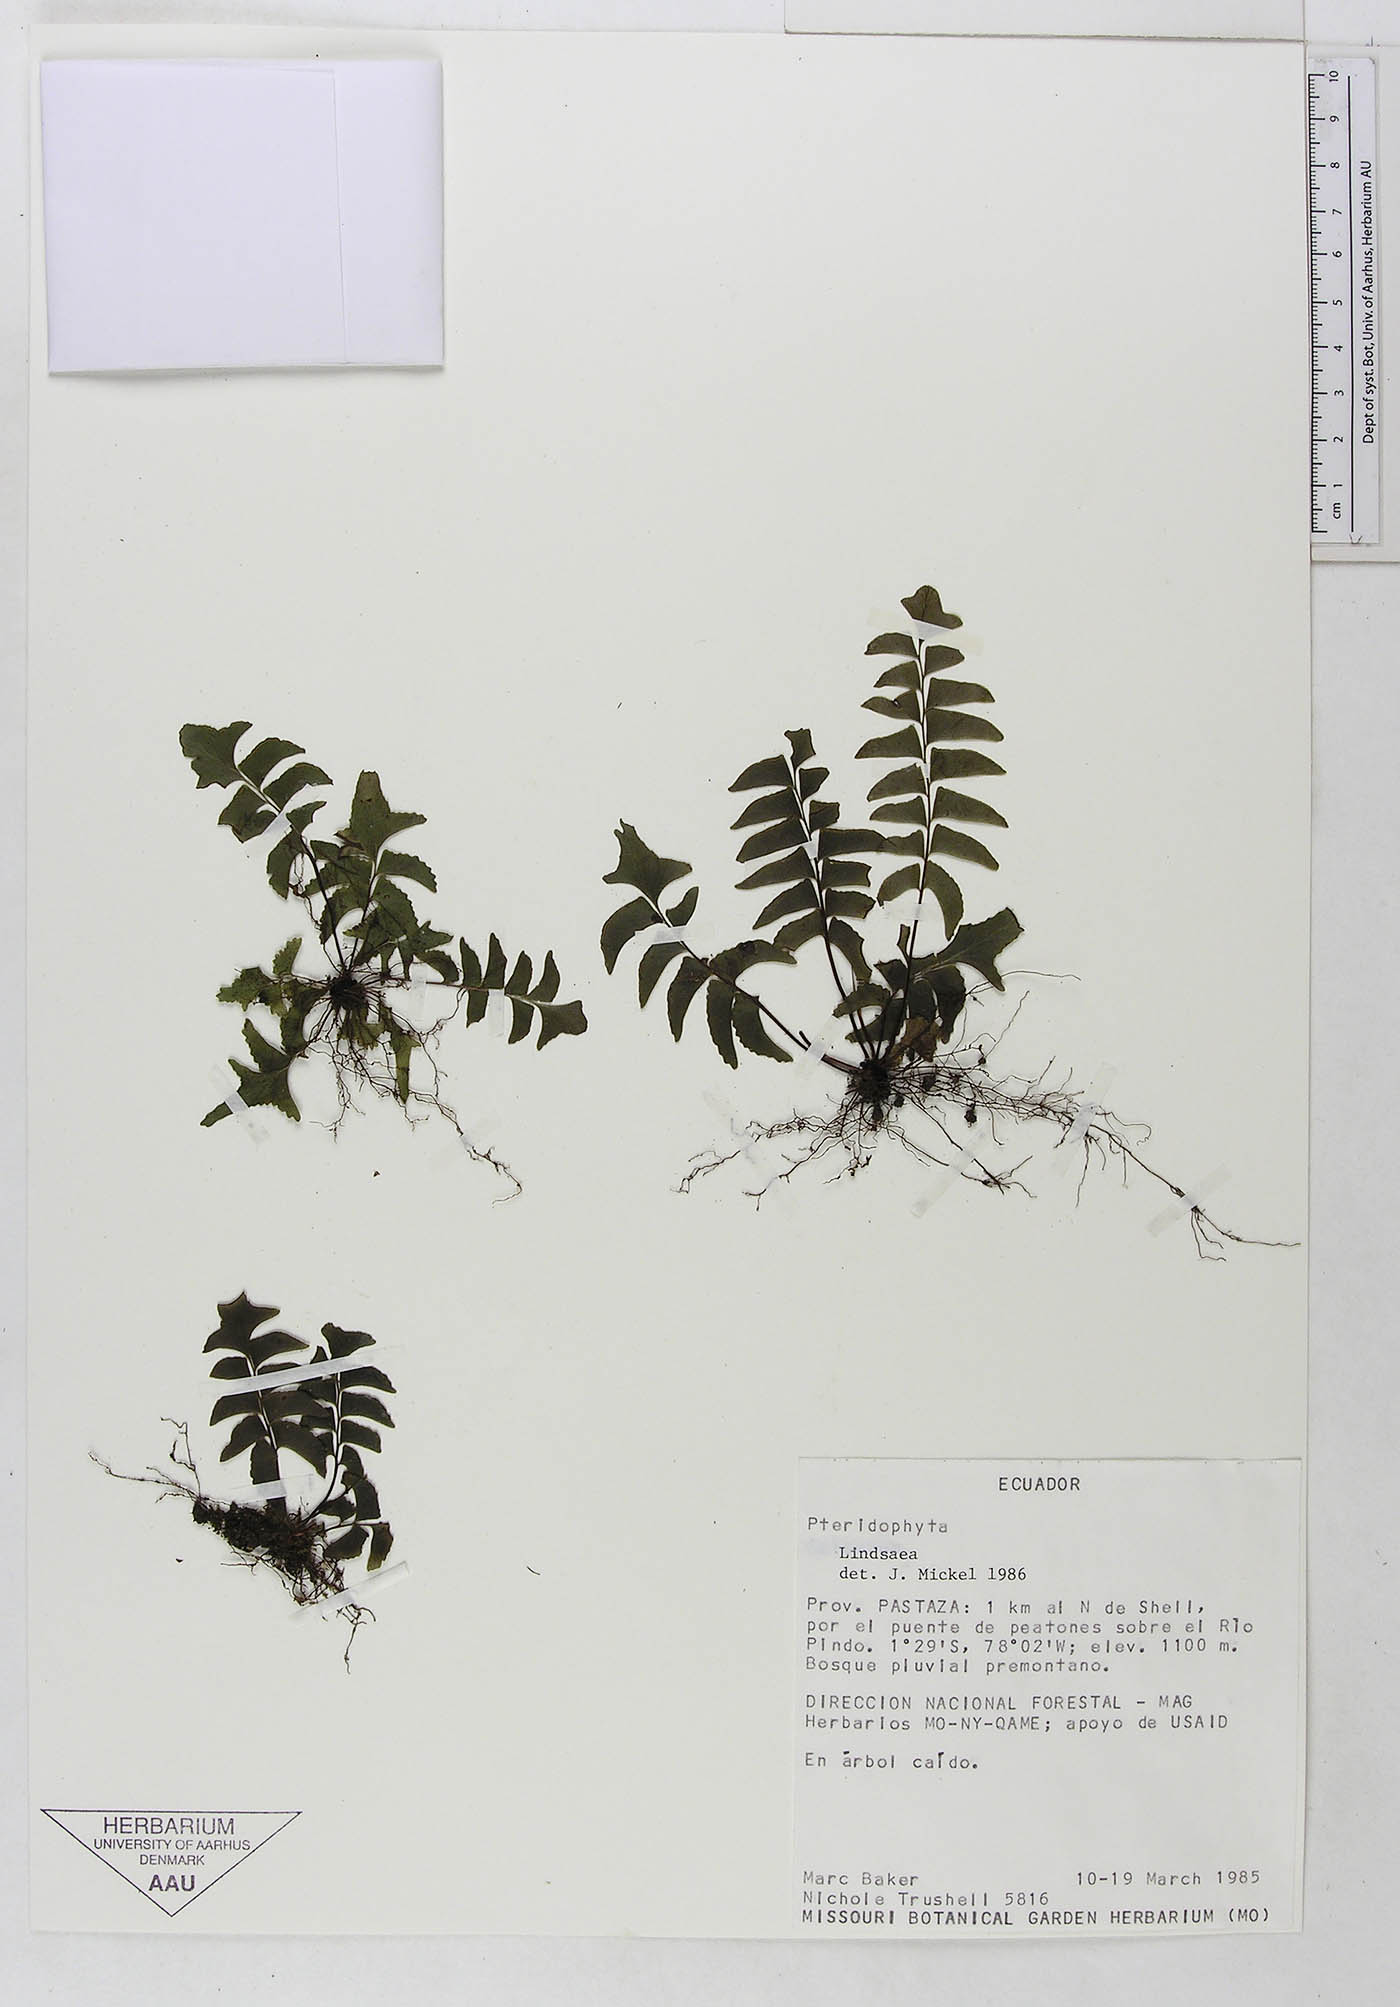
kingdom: Plantae
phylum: Tracheophyta
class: Polypodiopsida
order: Polypodiales
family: Dennstaedtiaceae
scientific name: Dennstaedtiaceae
